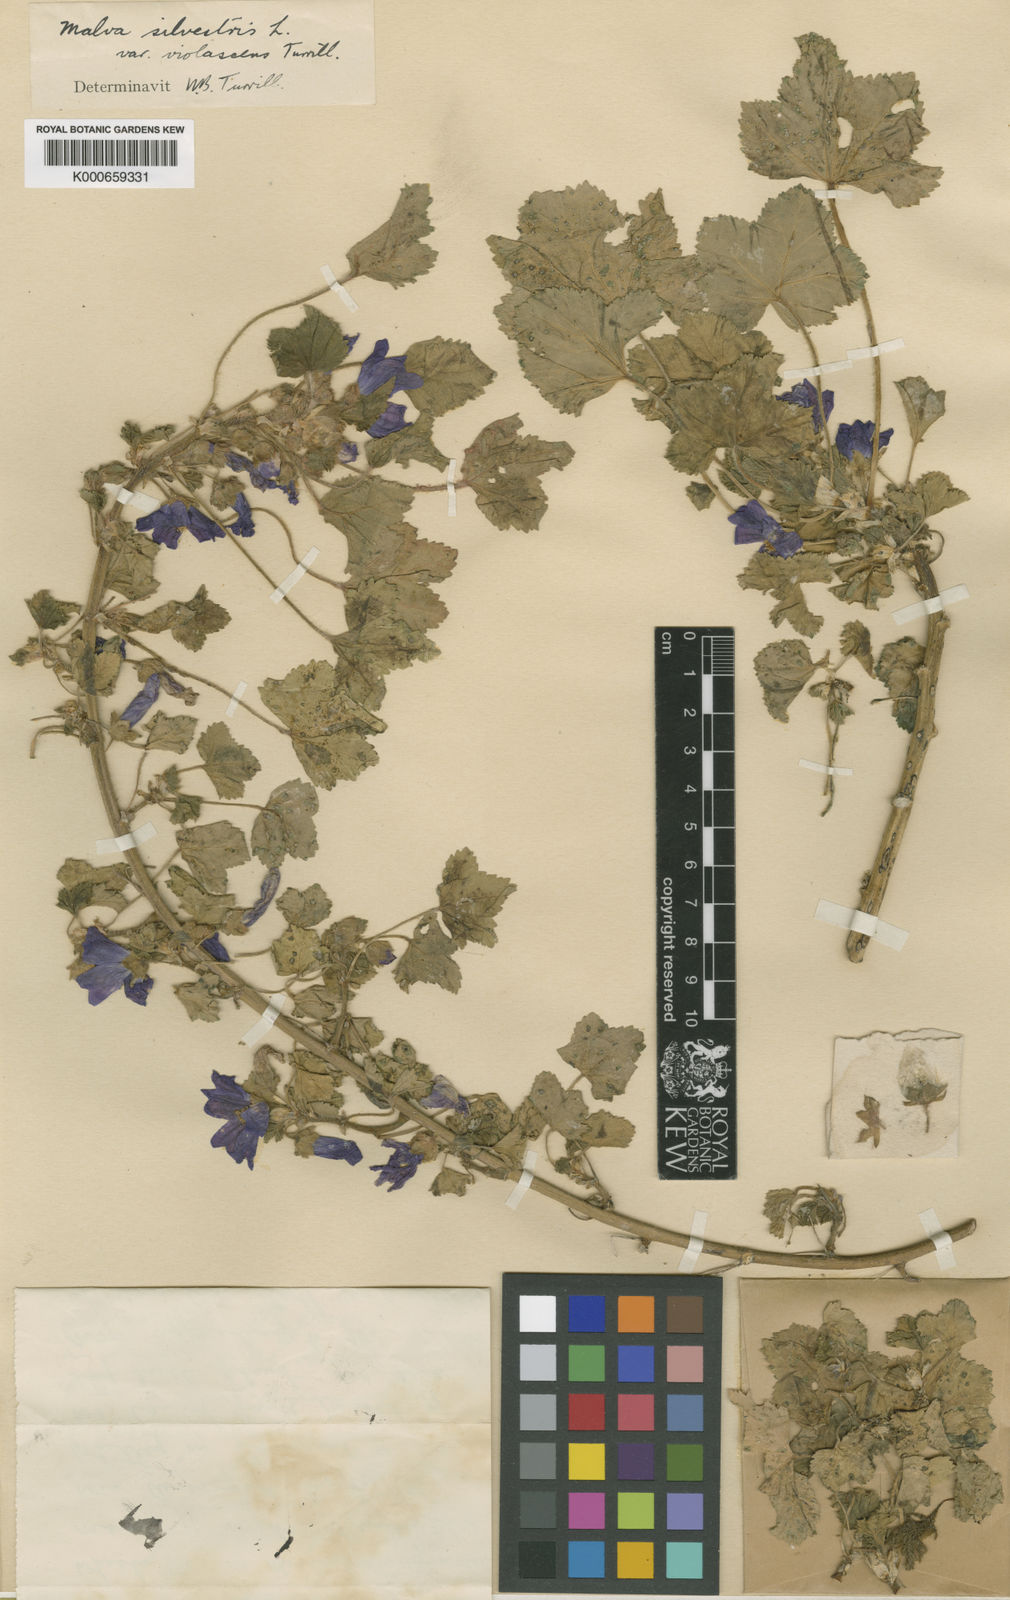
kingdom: Plantae
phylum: Tracheophyta
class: Magnoliopsida
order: Malvales
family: Malvaceae
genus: Malva
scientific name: Malva sylvestris
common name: Common mallow
